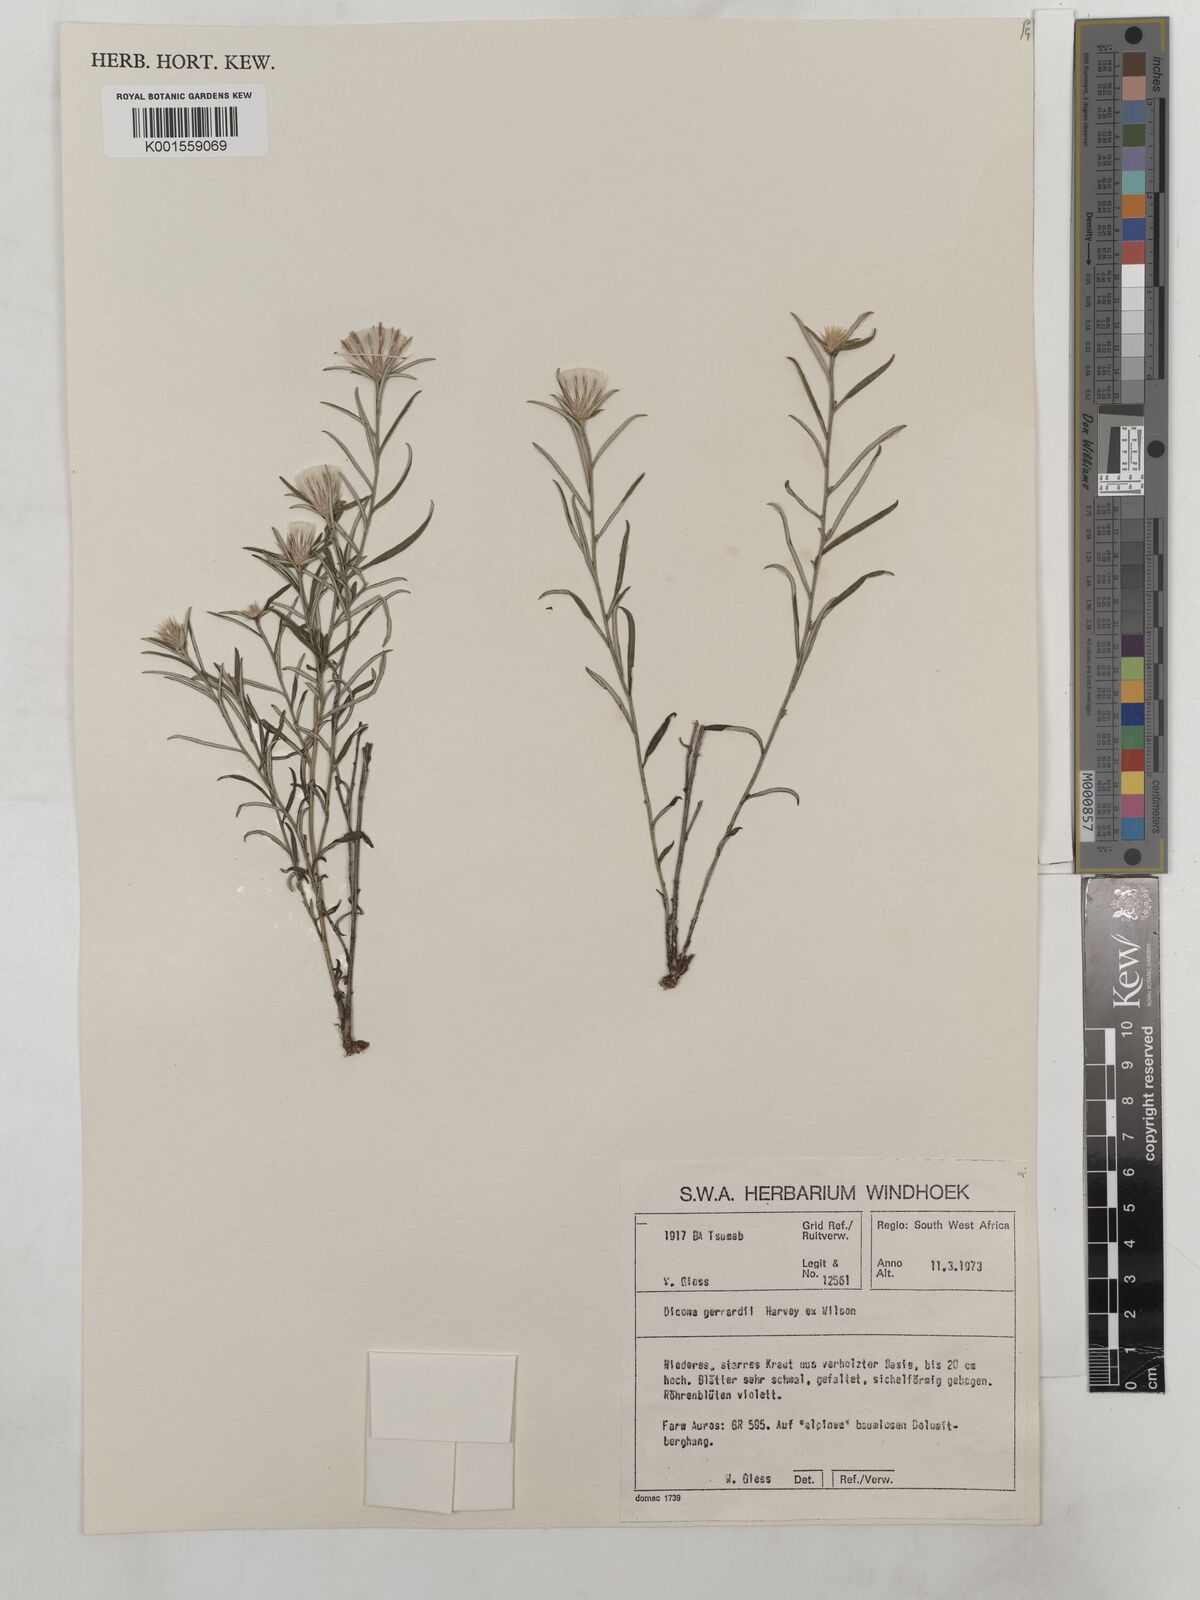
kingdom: Plantae
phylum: Tracheophyta
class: Magnoliopsida
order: Asterales
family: Asteraceae
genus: Dicoma
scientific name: Dicoma anomala
